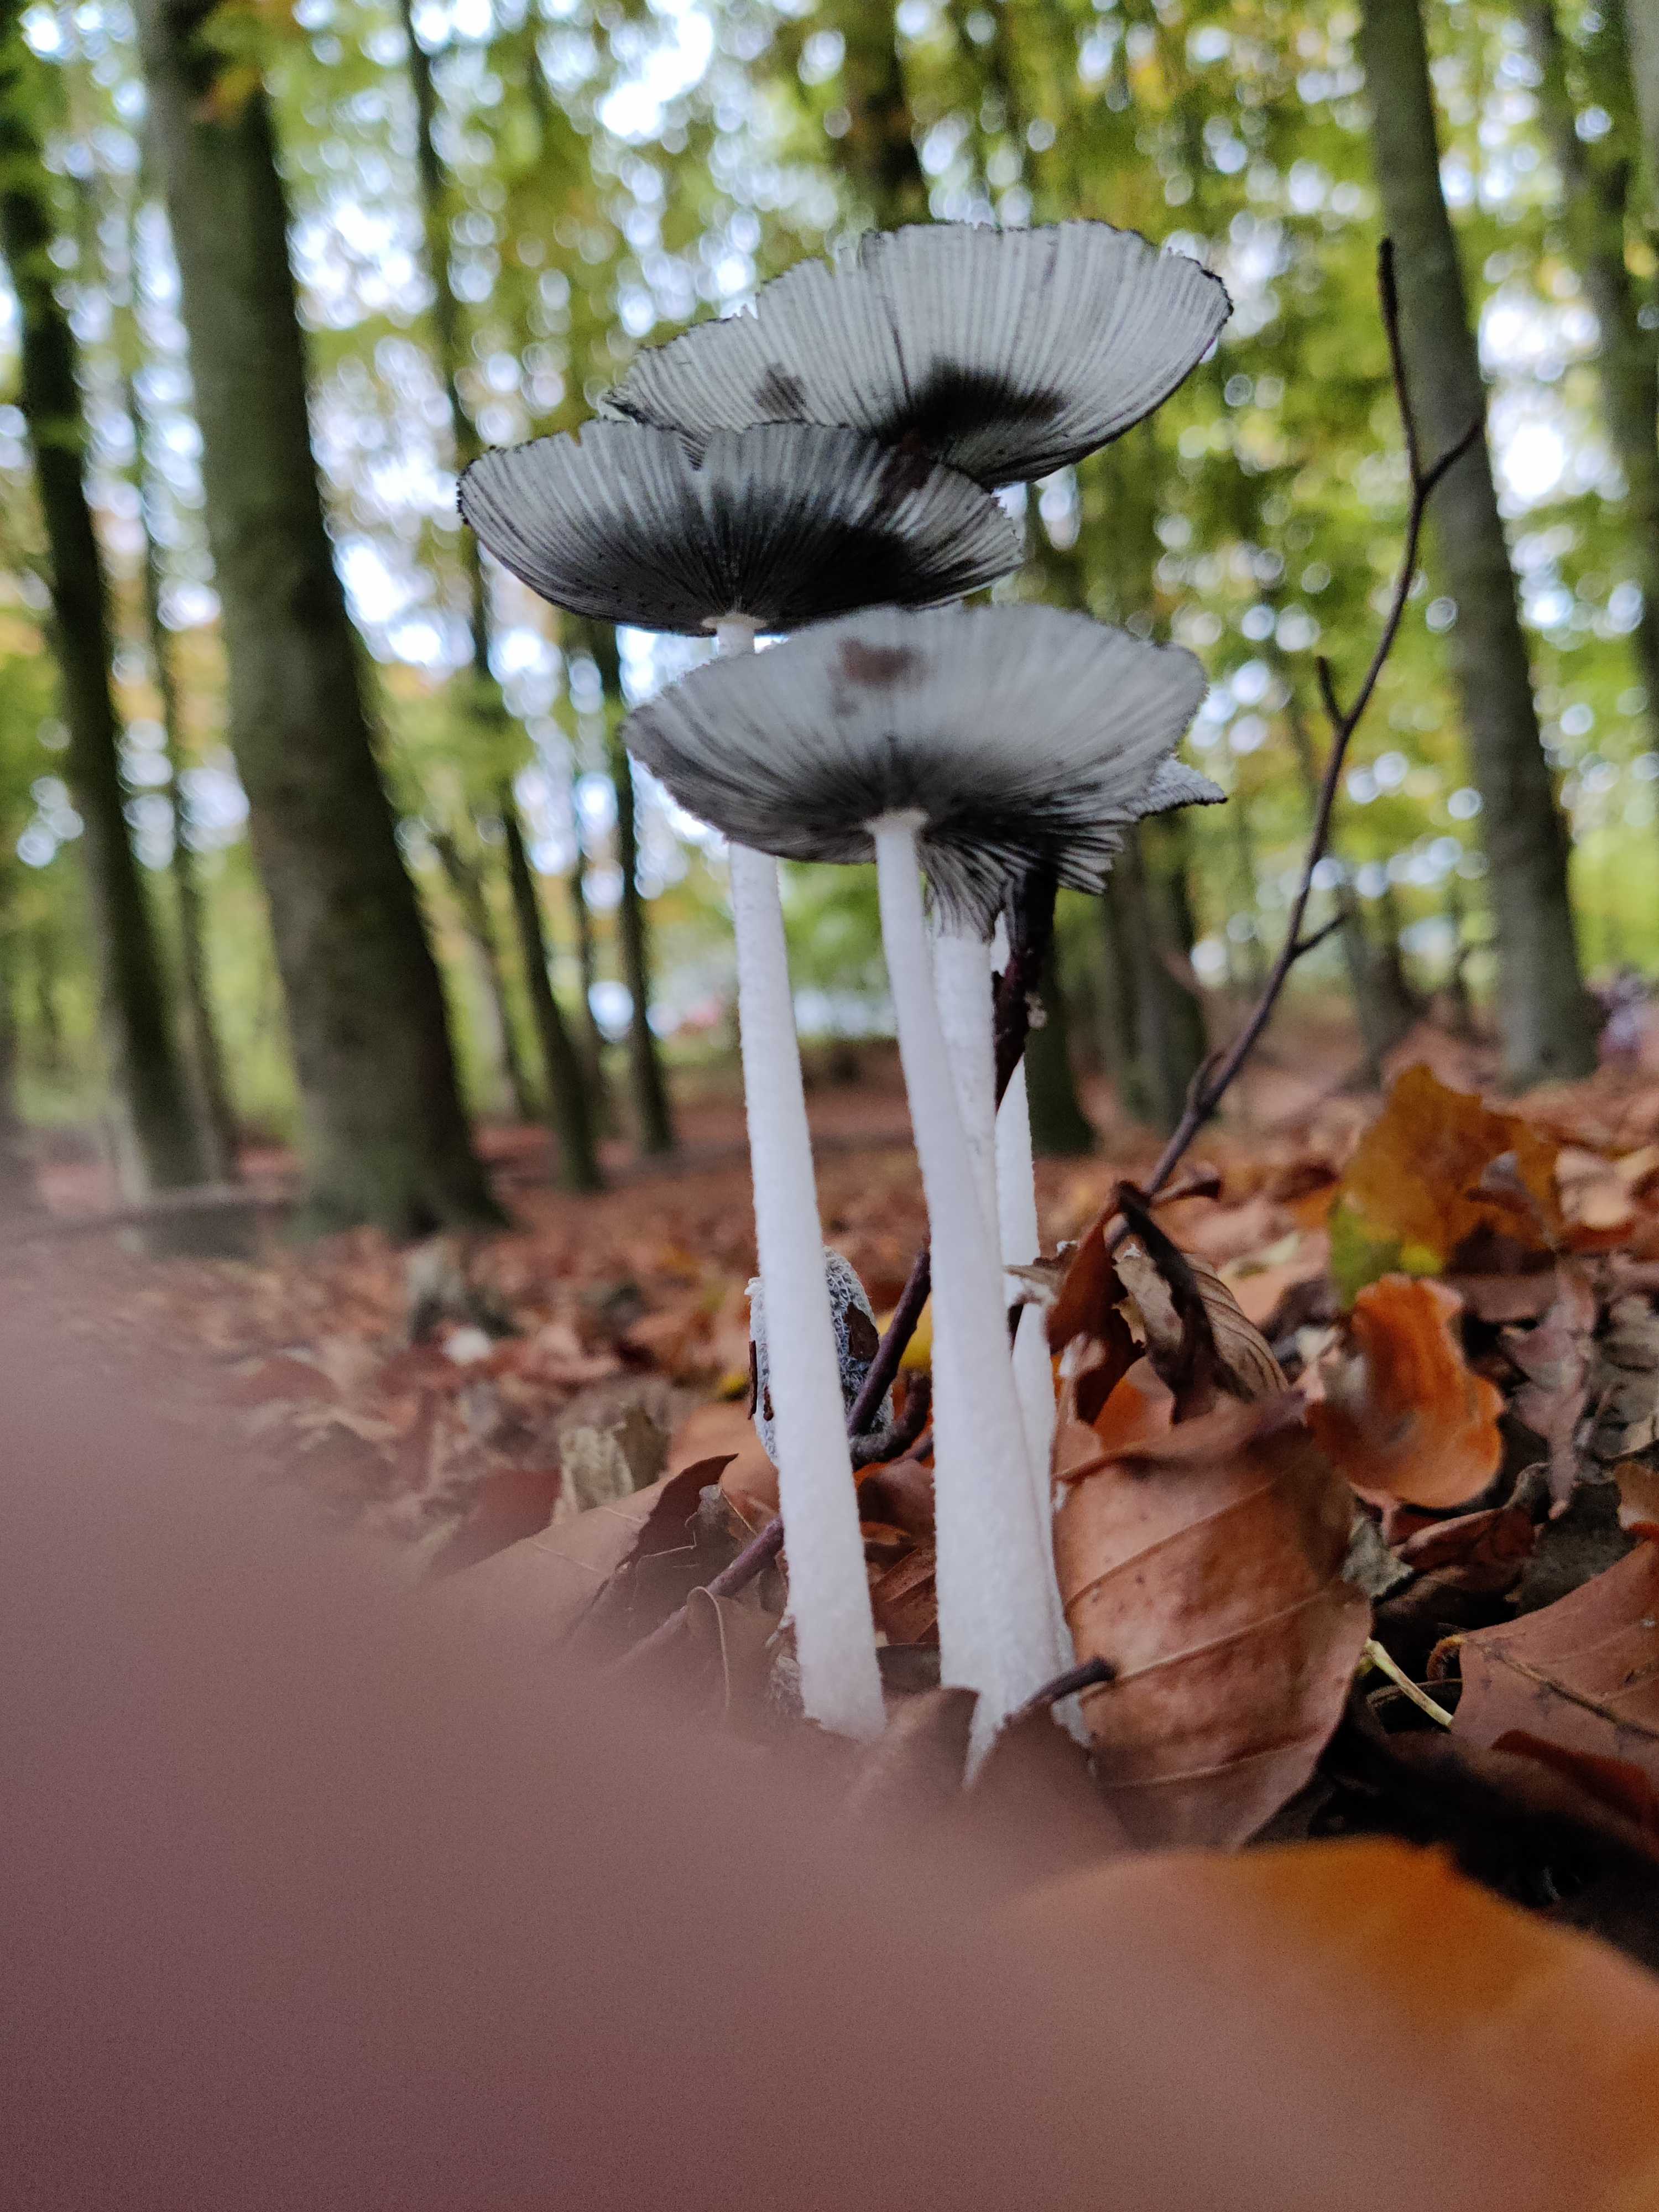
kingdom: Fungi
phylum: Basidiomycota
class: Agaricomycetes
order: Agaricales
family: Psathyrellaceae
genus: Coprinopsis
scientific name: Coprinopsis lagopus
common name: dunstokket blækhat
